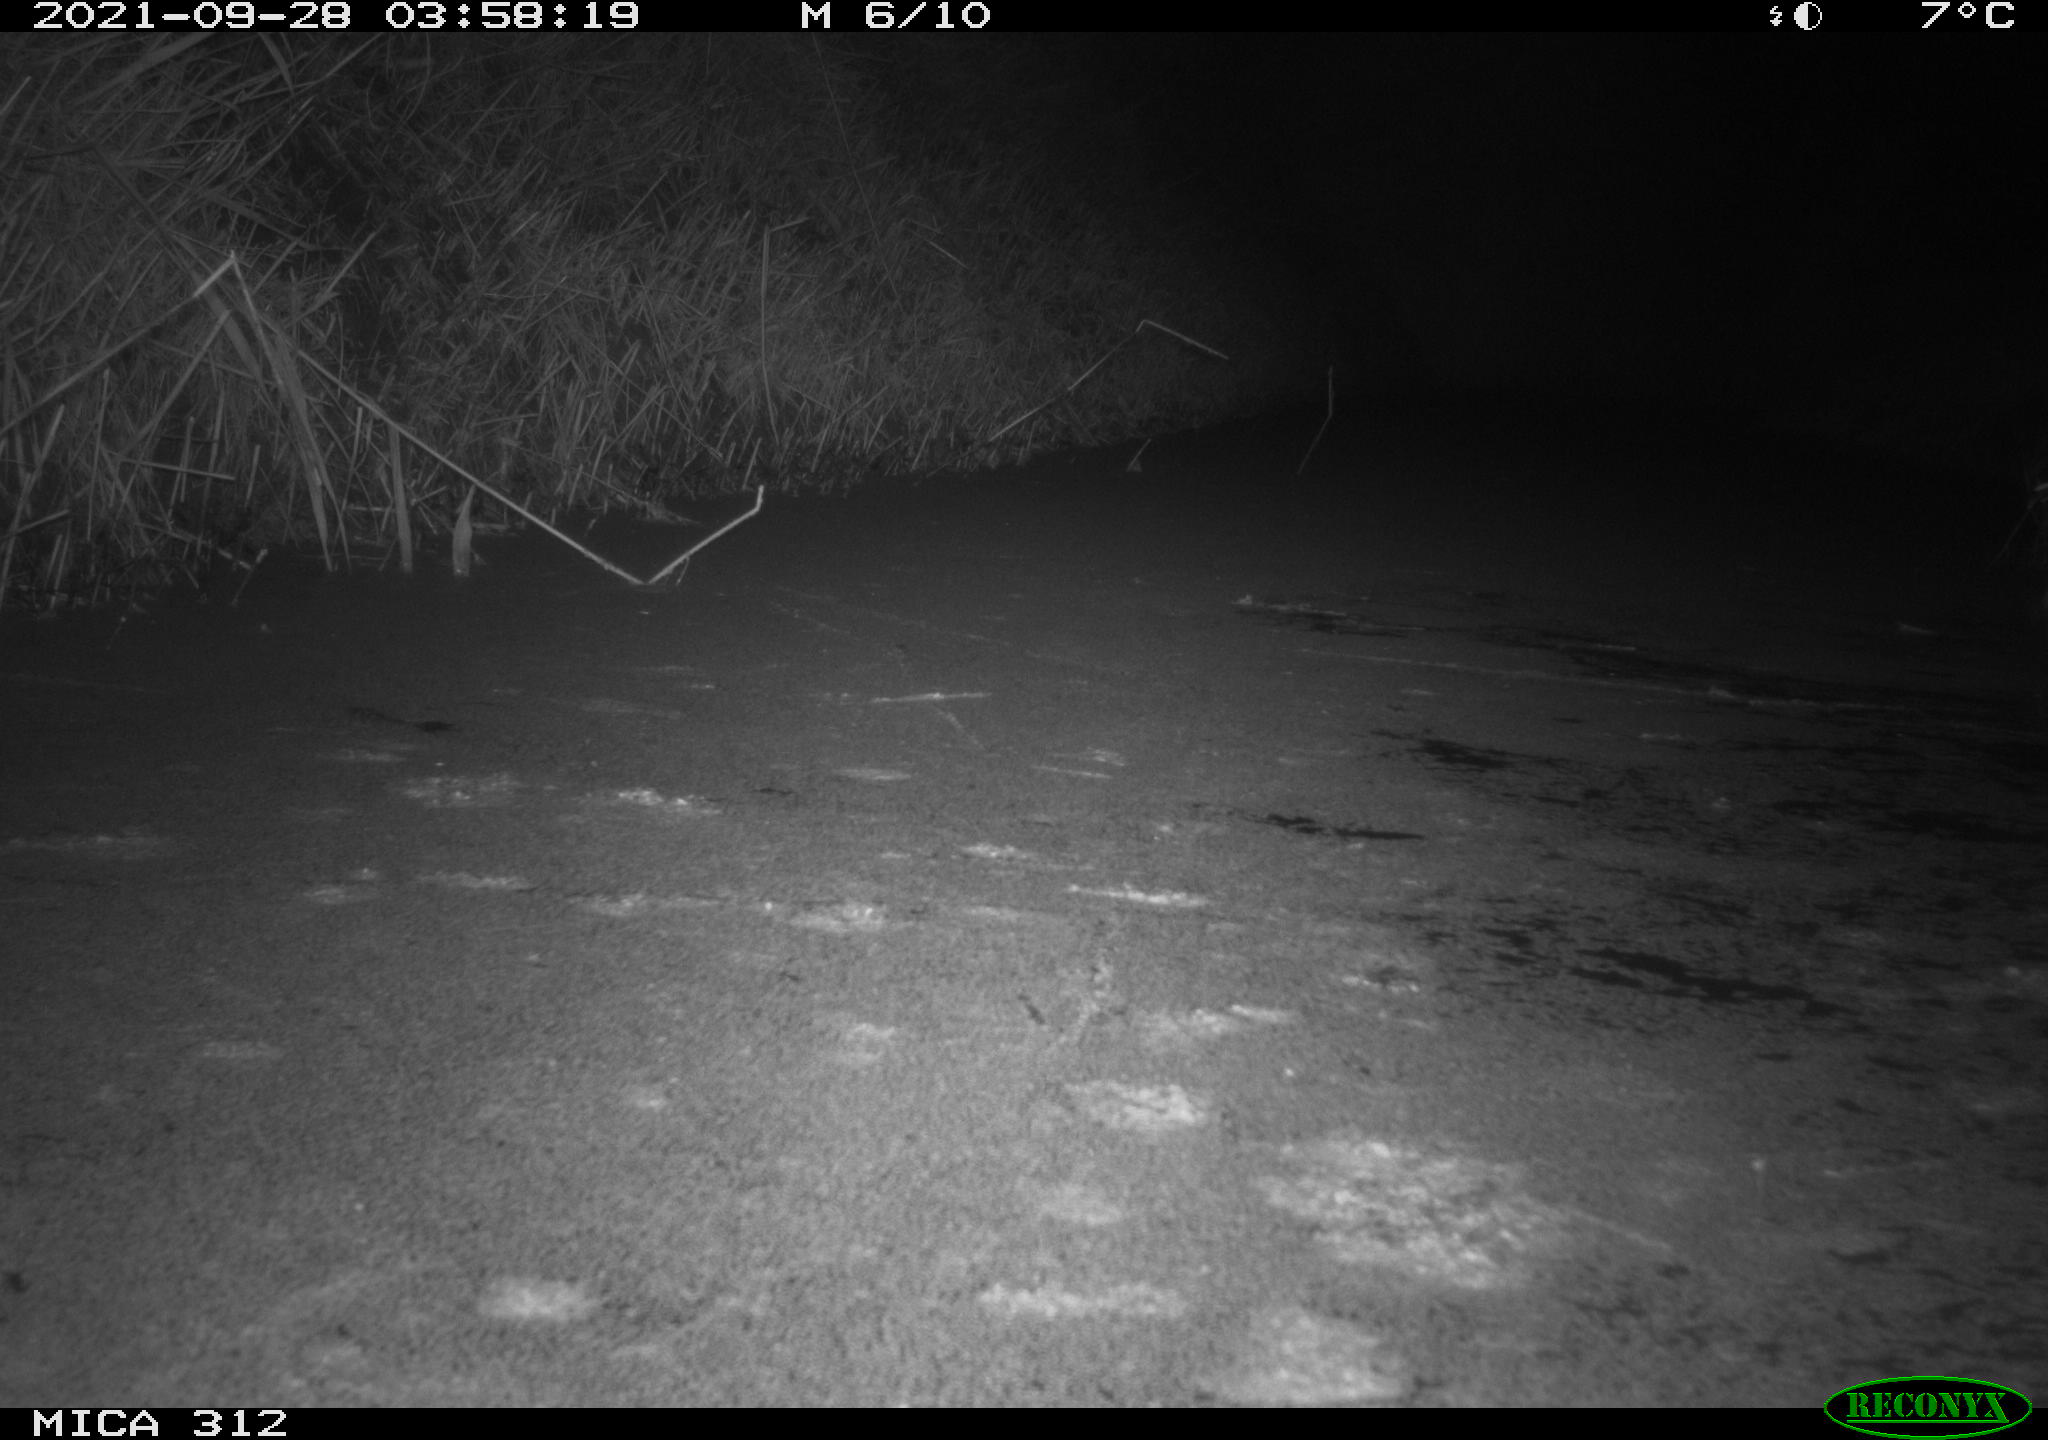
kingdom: Animalia
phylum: Chordata
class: Mammalia
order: Rodentia
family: Muridae
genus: Rattus
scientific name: Rattus norvegicus
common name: Brown rat
